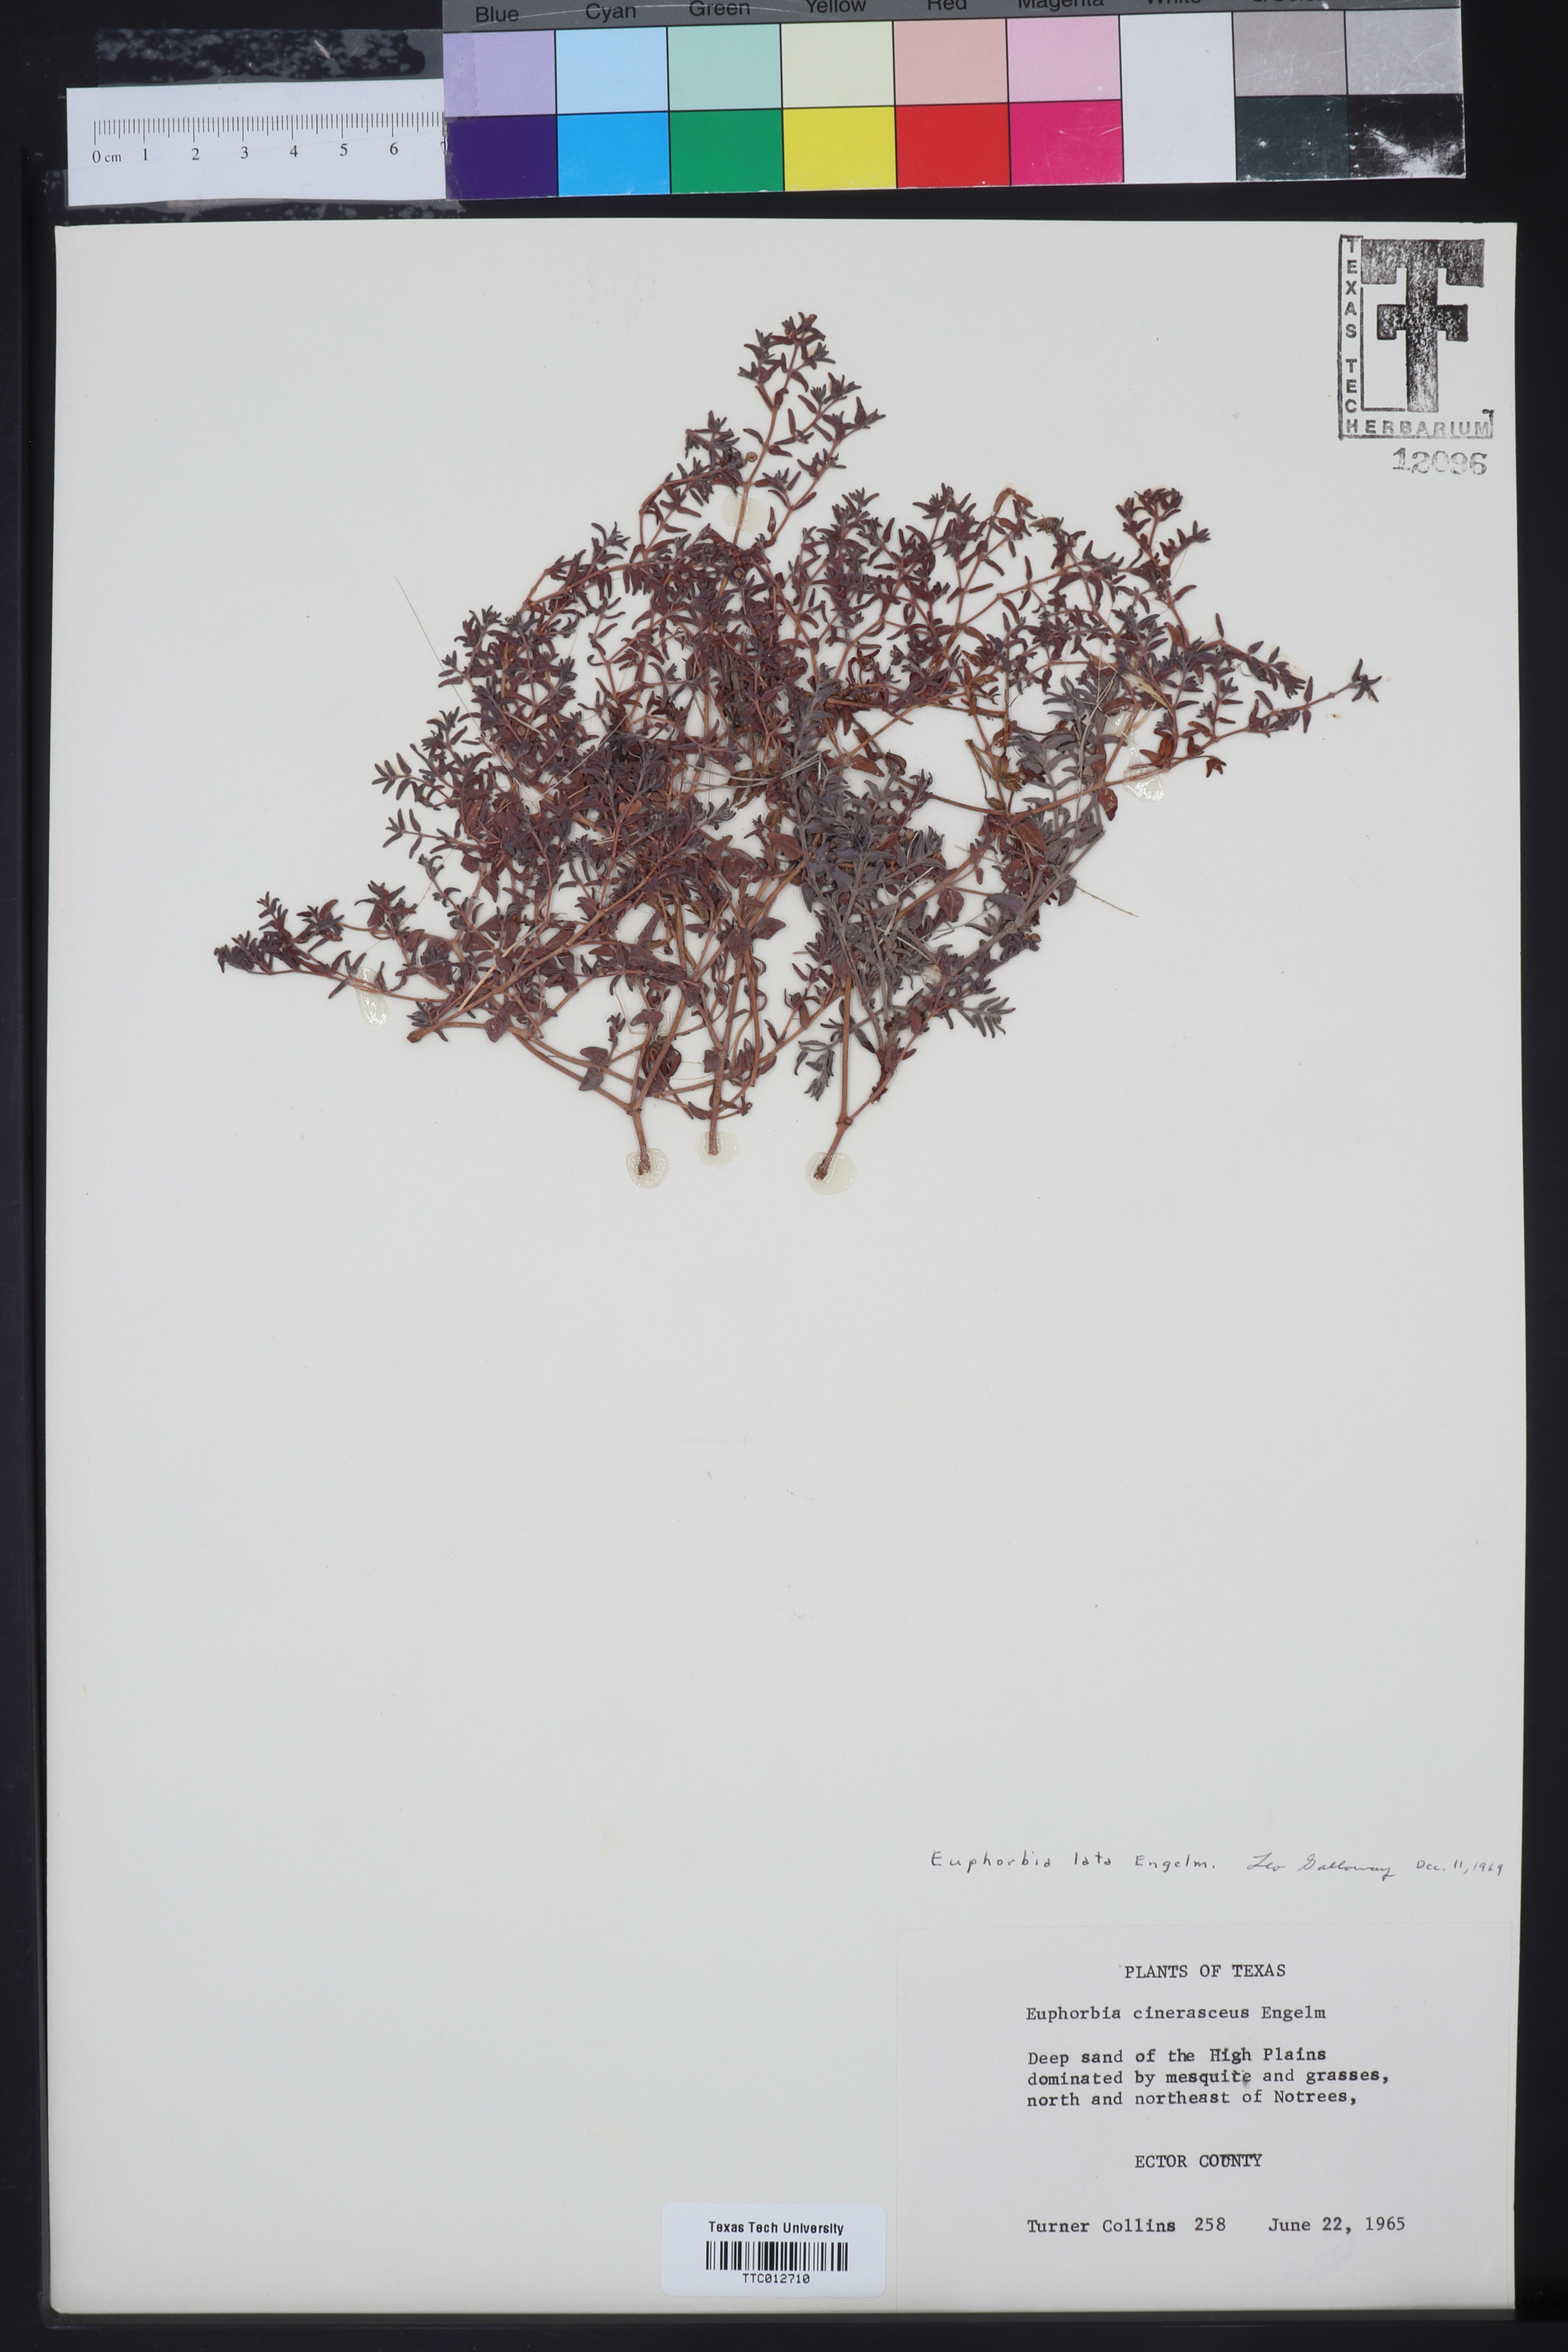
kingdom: Plantae
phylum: Tracheophyta
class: Magnoliopsida
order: Malpighiales
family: Euphorbiaceae
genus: Euphorbia
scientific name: Euphorbia lata
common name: Hoary euphorbia
